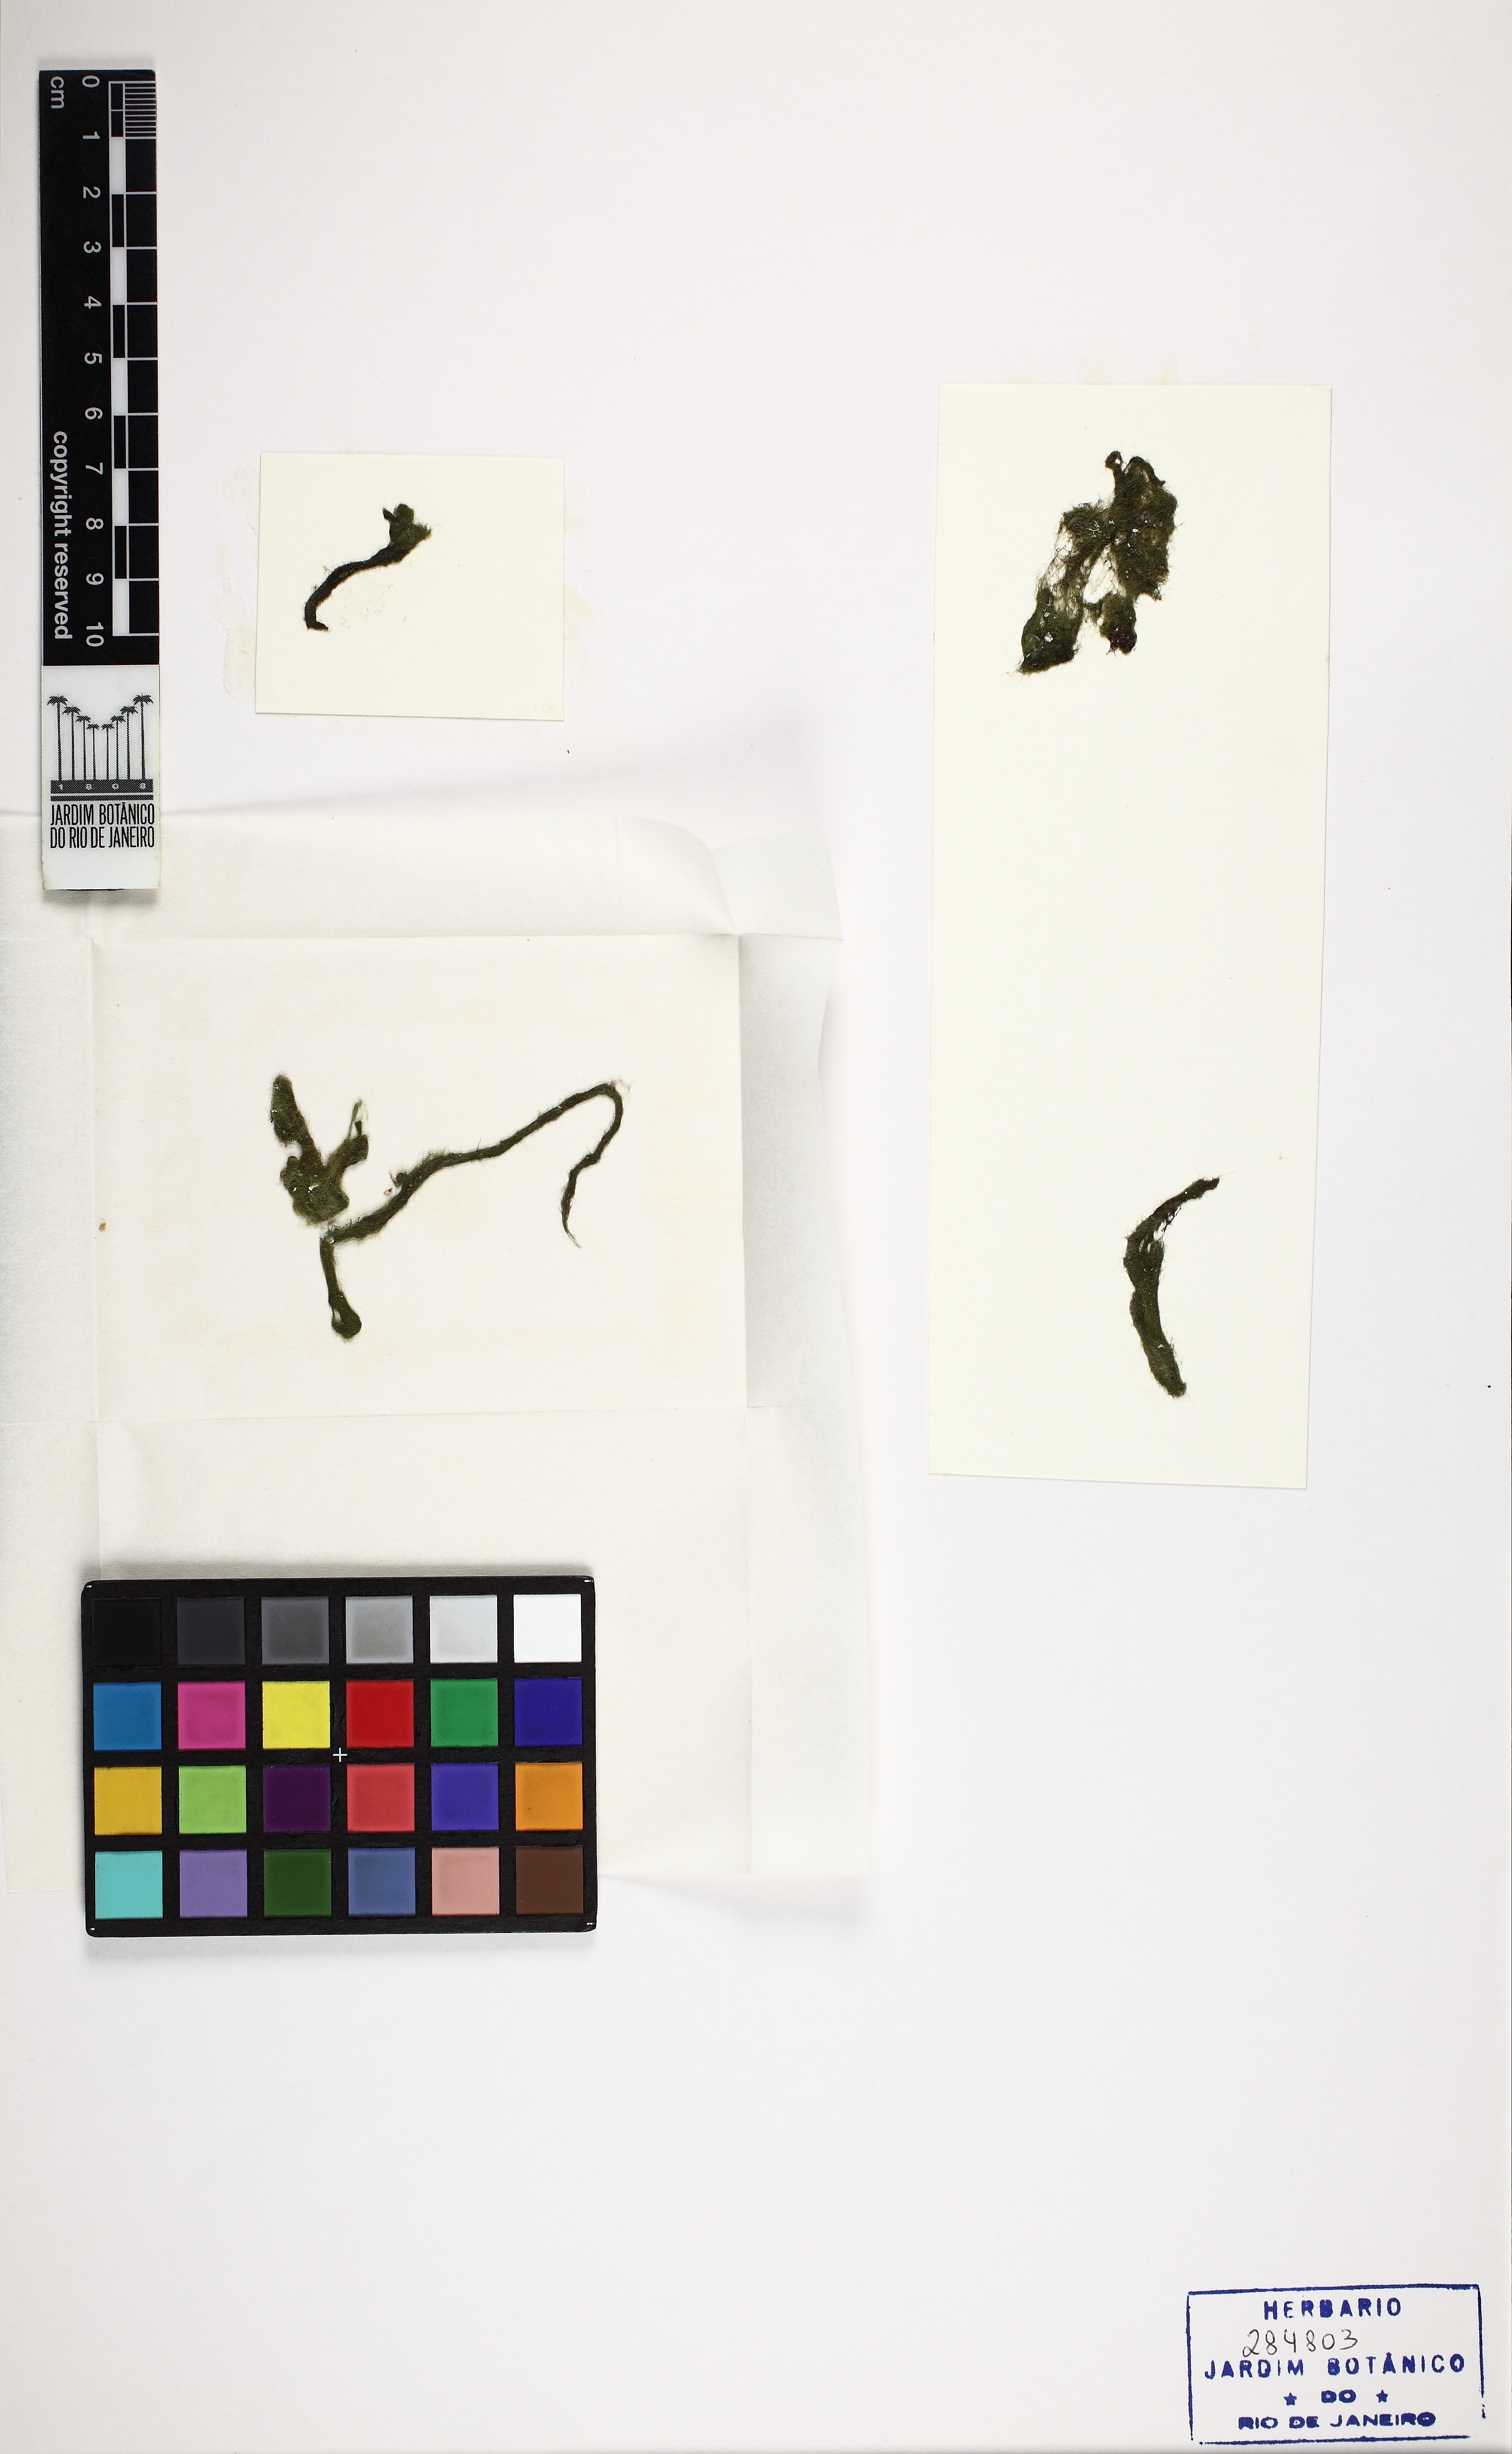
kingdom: Plantae
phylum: Chlorophyta
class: Ulvophyceae
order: Cladophorales
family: Cladophoraceae
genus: Rhizoclonium
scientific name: Rhizoclonium
